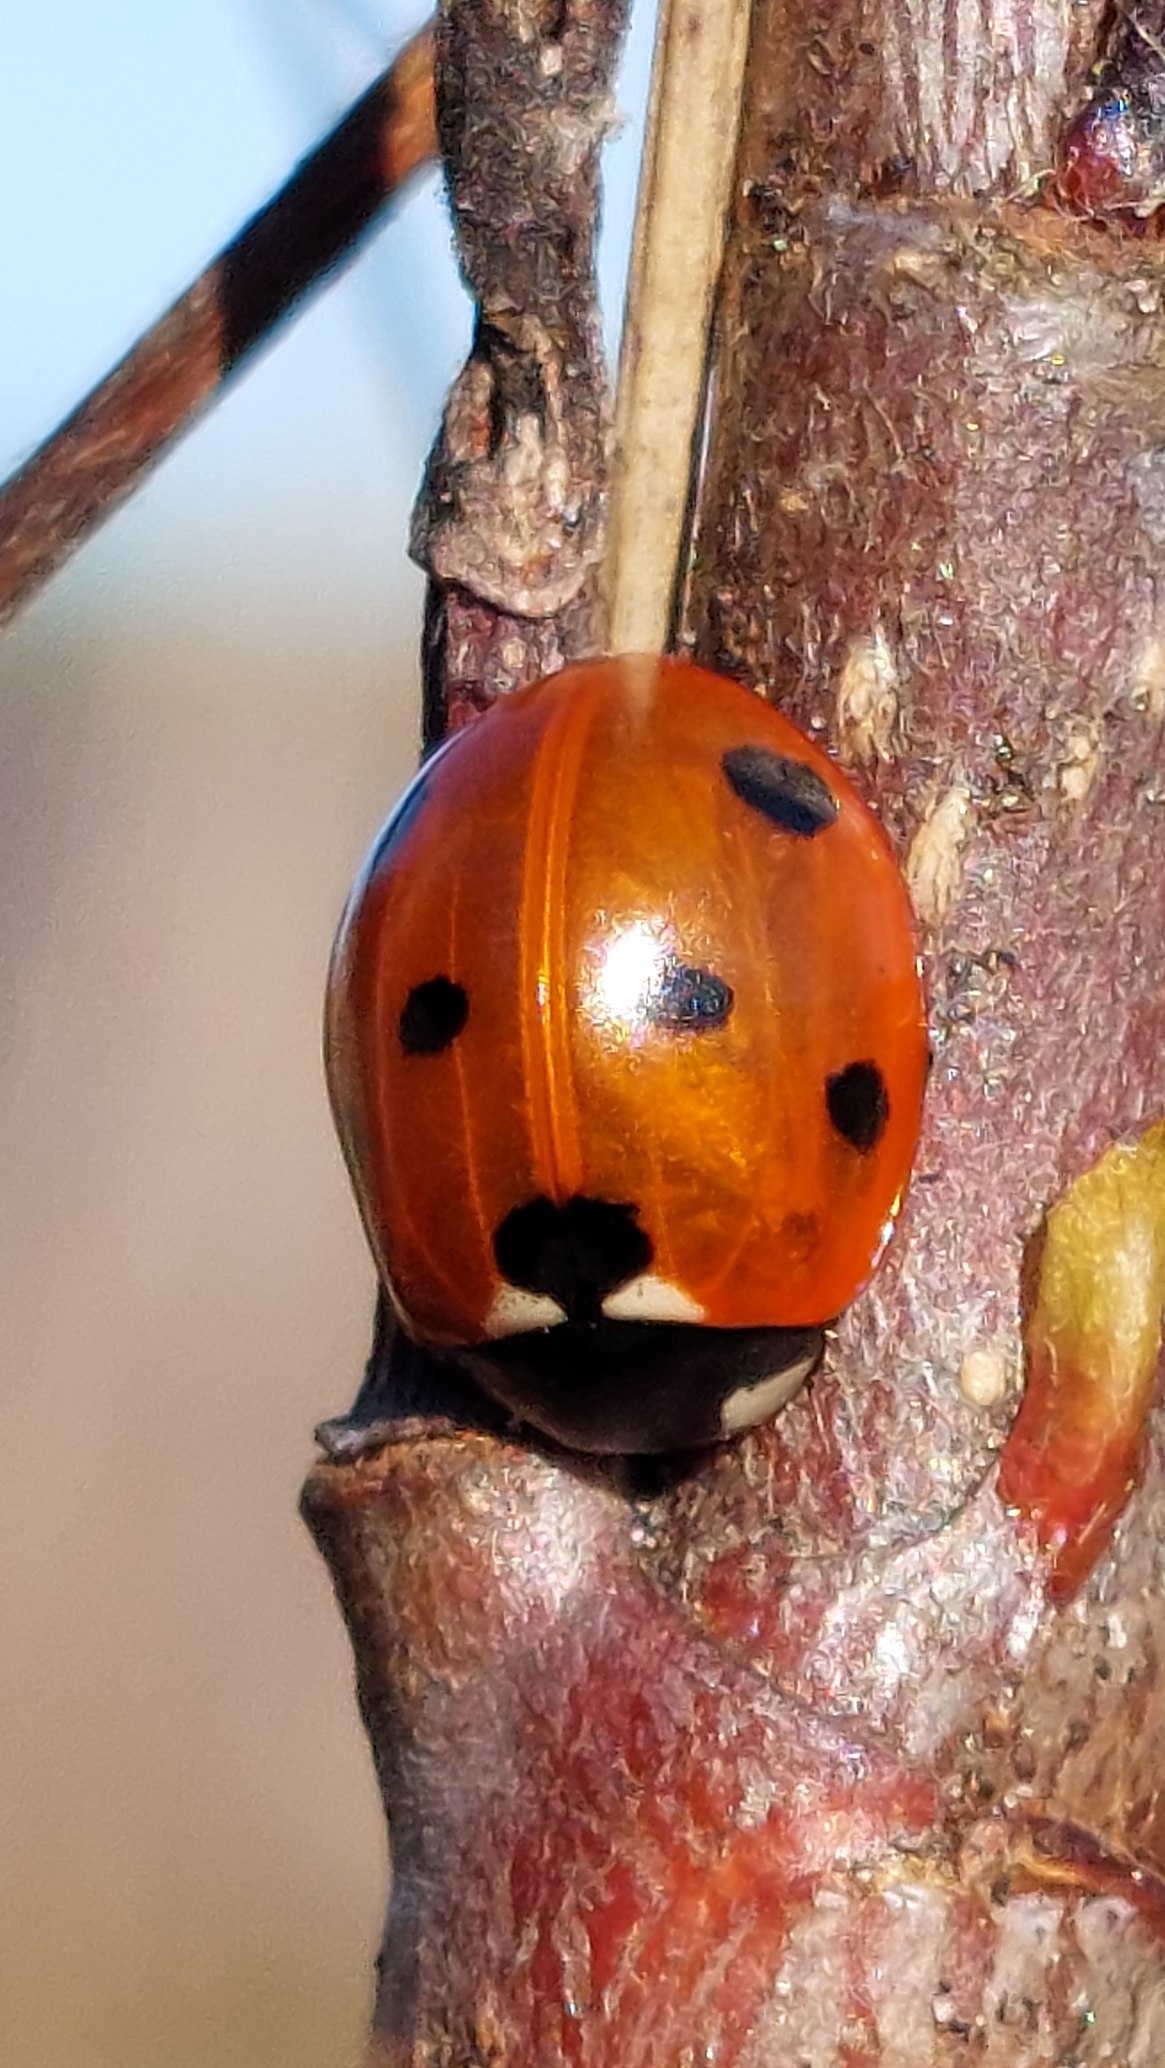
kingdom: Animalia
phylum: Arthropoda
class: Insecta
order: Coleoptera
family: Coccinellidae
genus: Coccinella
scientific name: Coccinella septempunctata
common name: Syvplettet mariehøne
